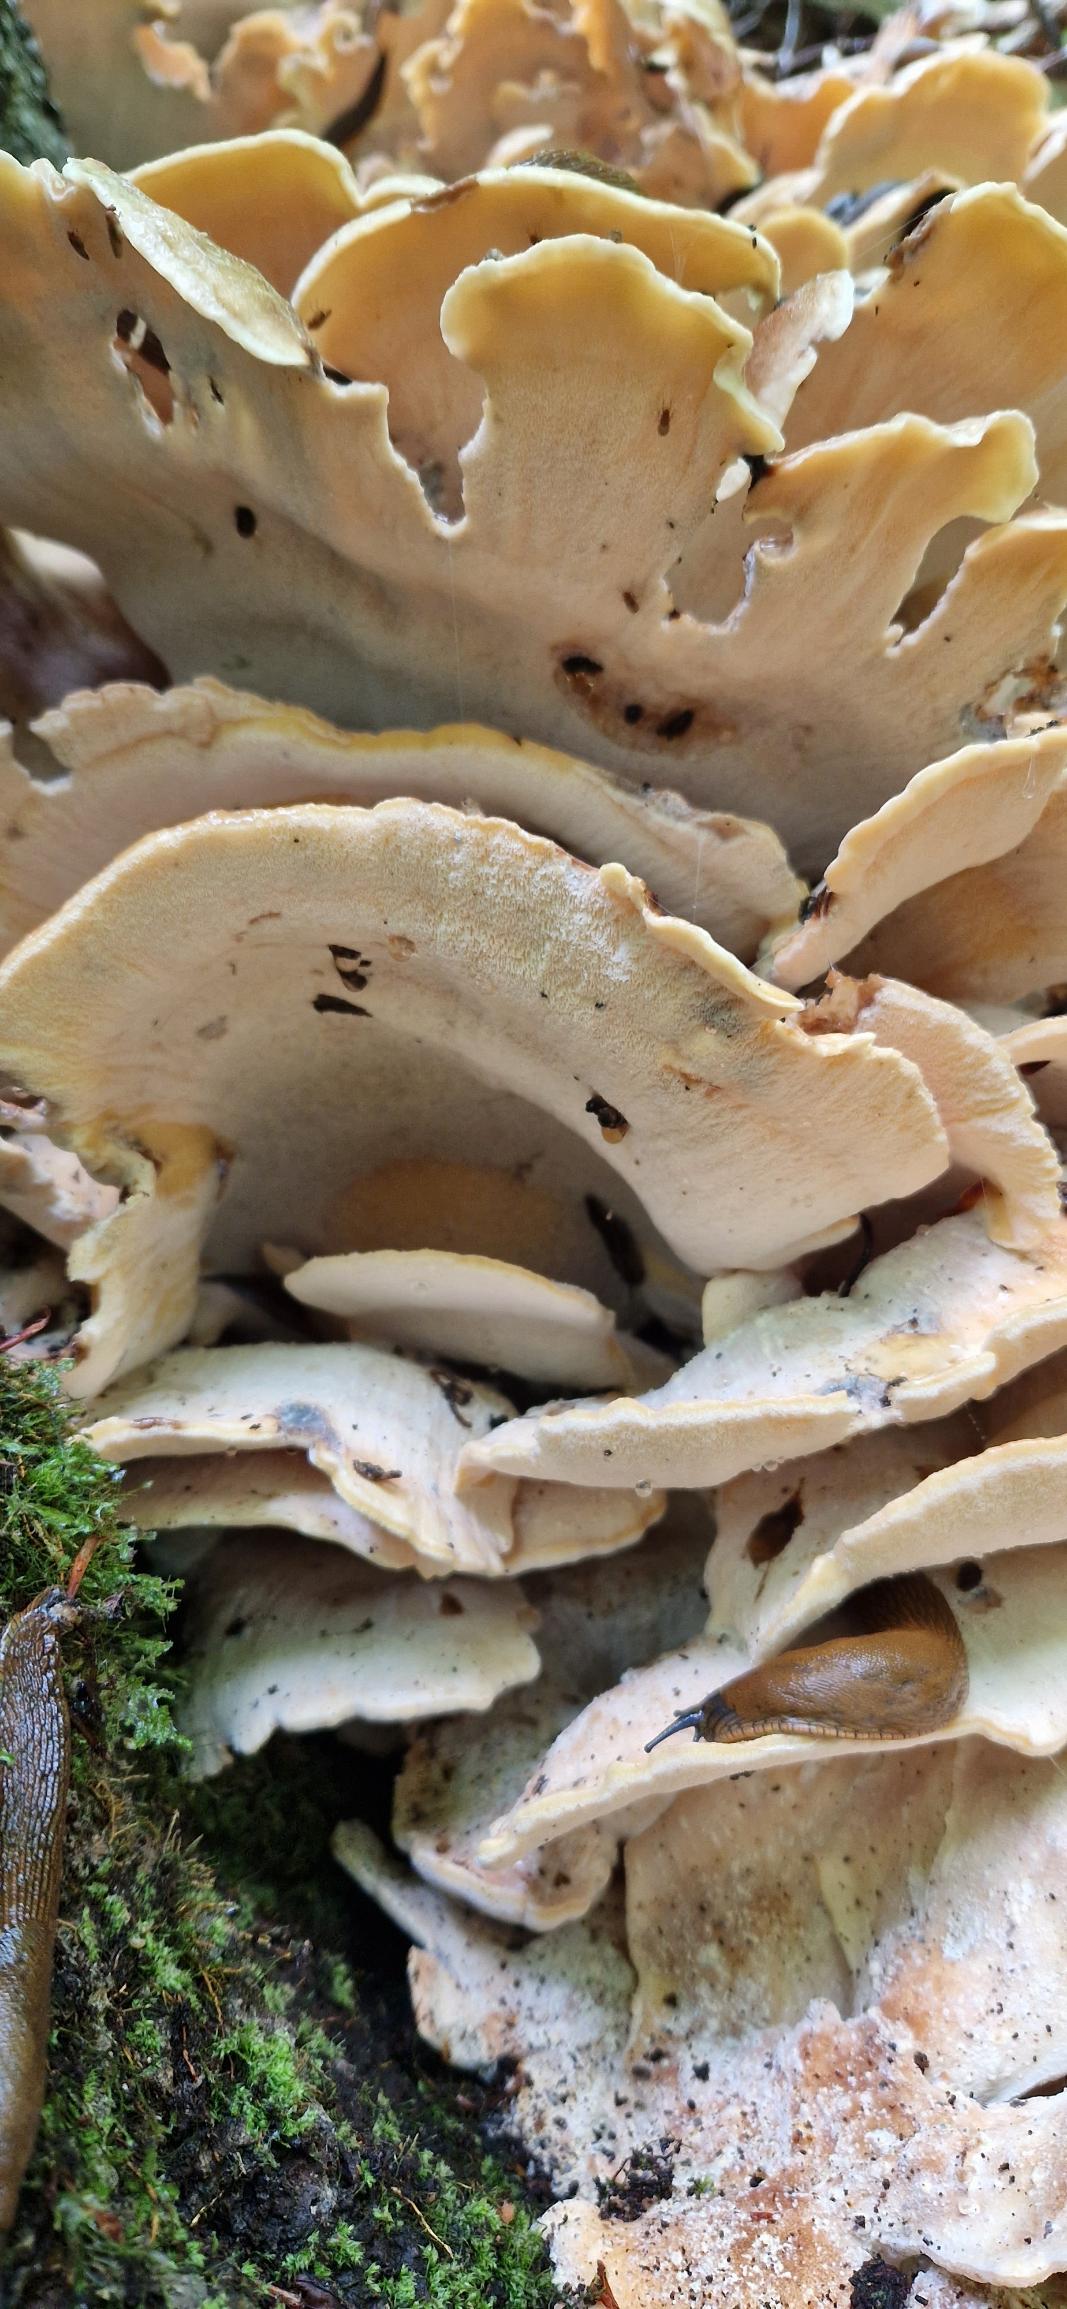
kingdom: Fungi
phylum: Basidiomycota
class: Agaricomycetes
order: Polyporales
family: Meripilaceae
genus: Meripilus
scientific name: Meripilus giganteus
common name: Kæmpeporesvamp
